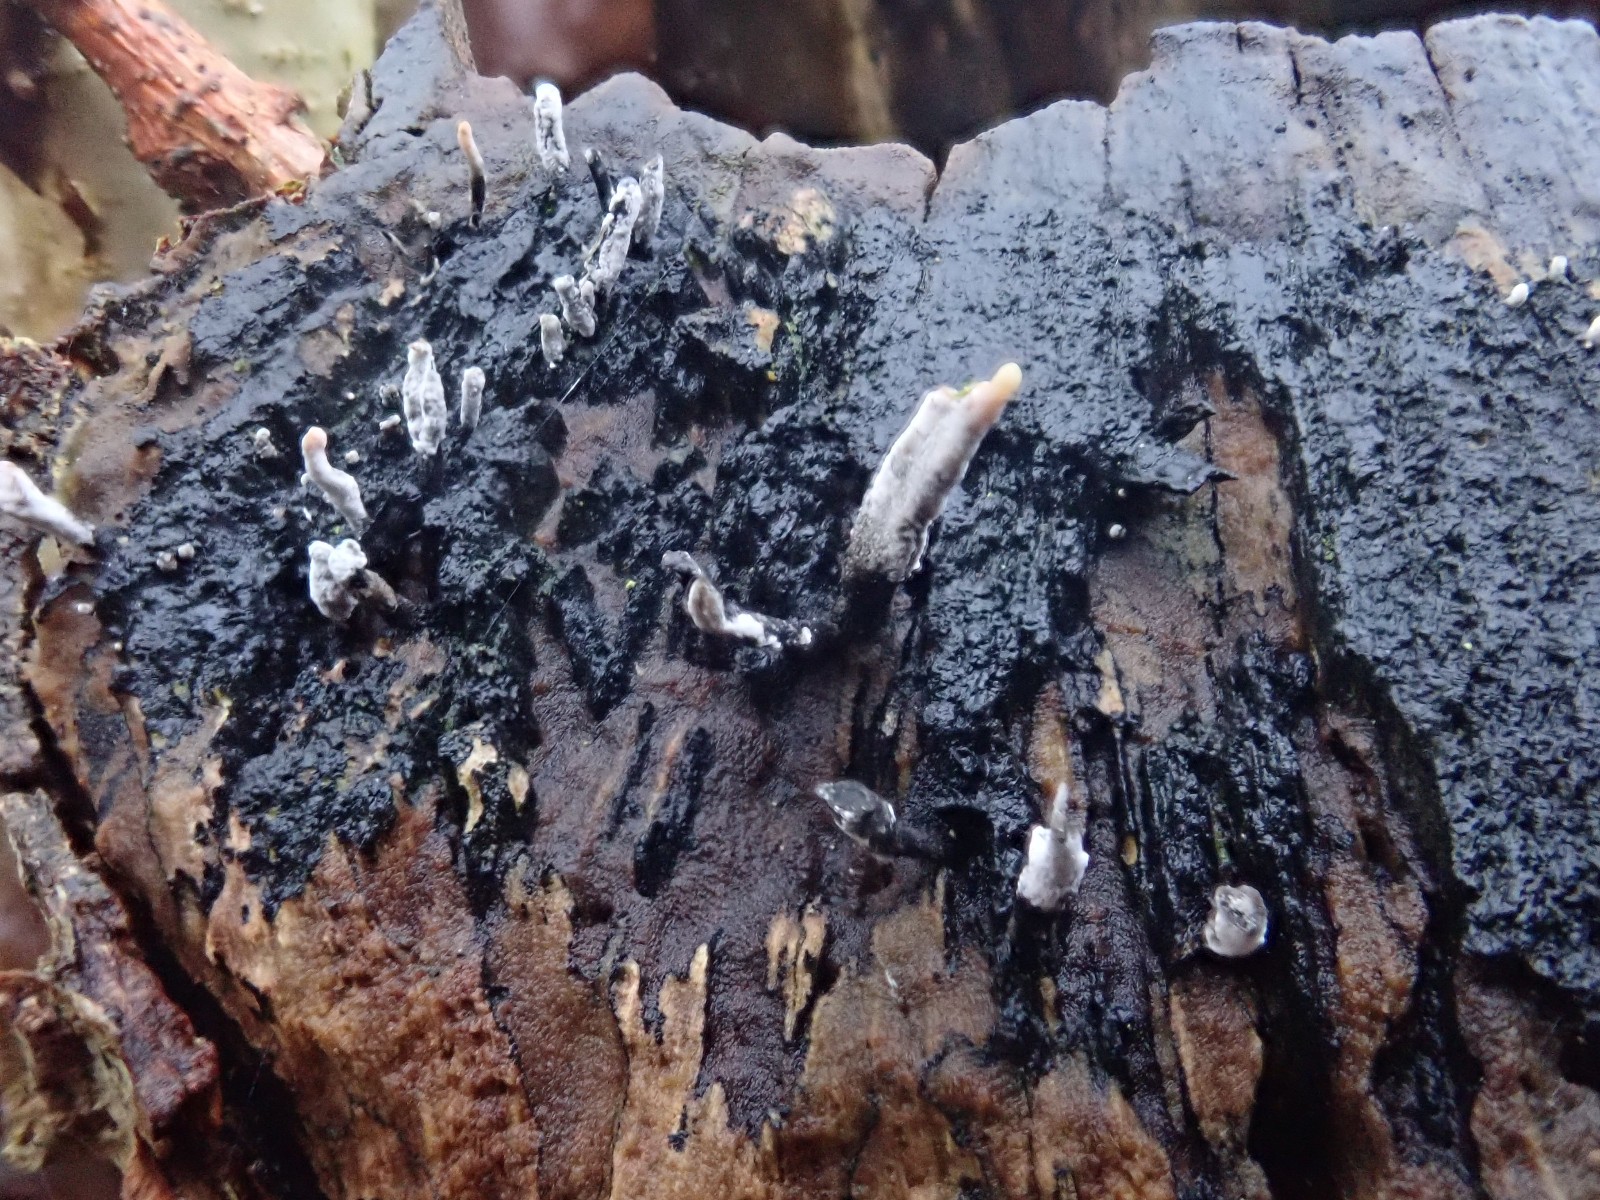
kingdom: Fungi
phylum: Ascomycota
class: Sordariomycetes
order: Xylariales
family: Xylariaceae
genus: Xylaria
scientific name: Xylaria hypoxylon
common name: grenet stødsvamp
